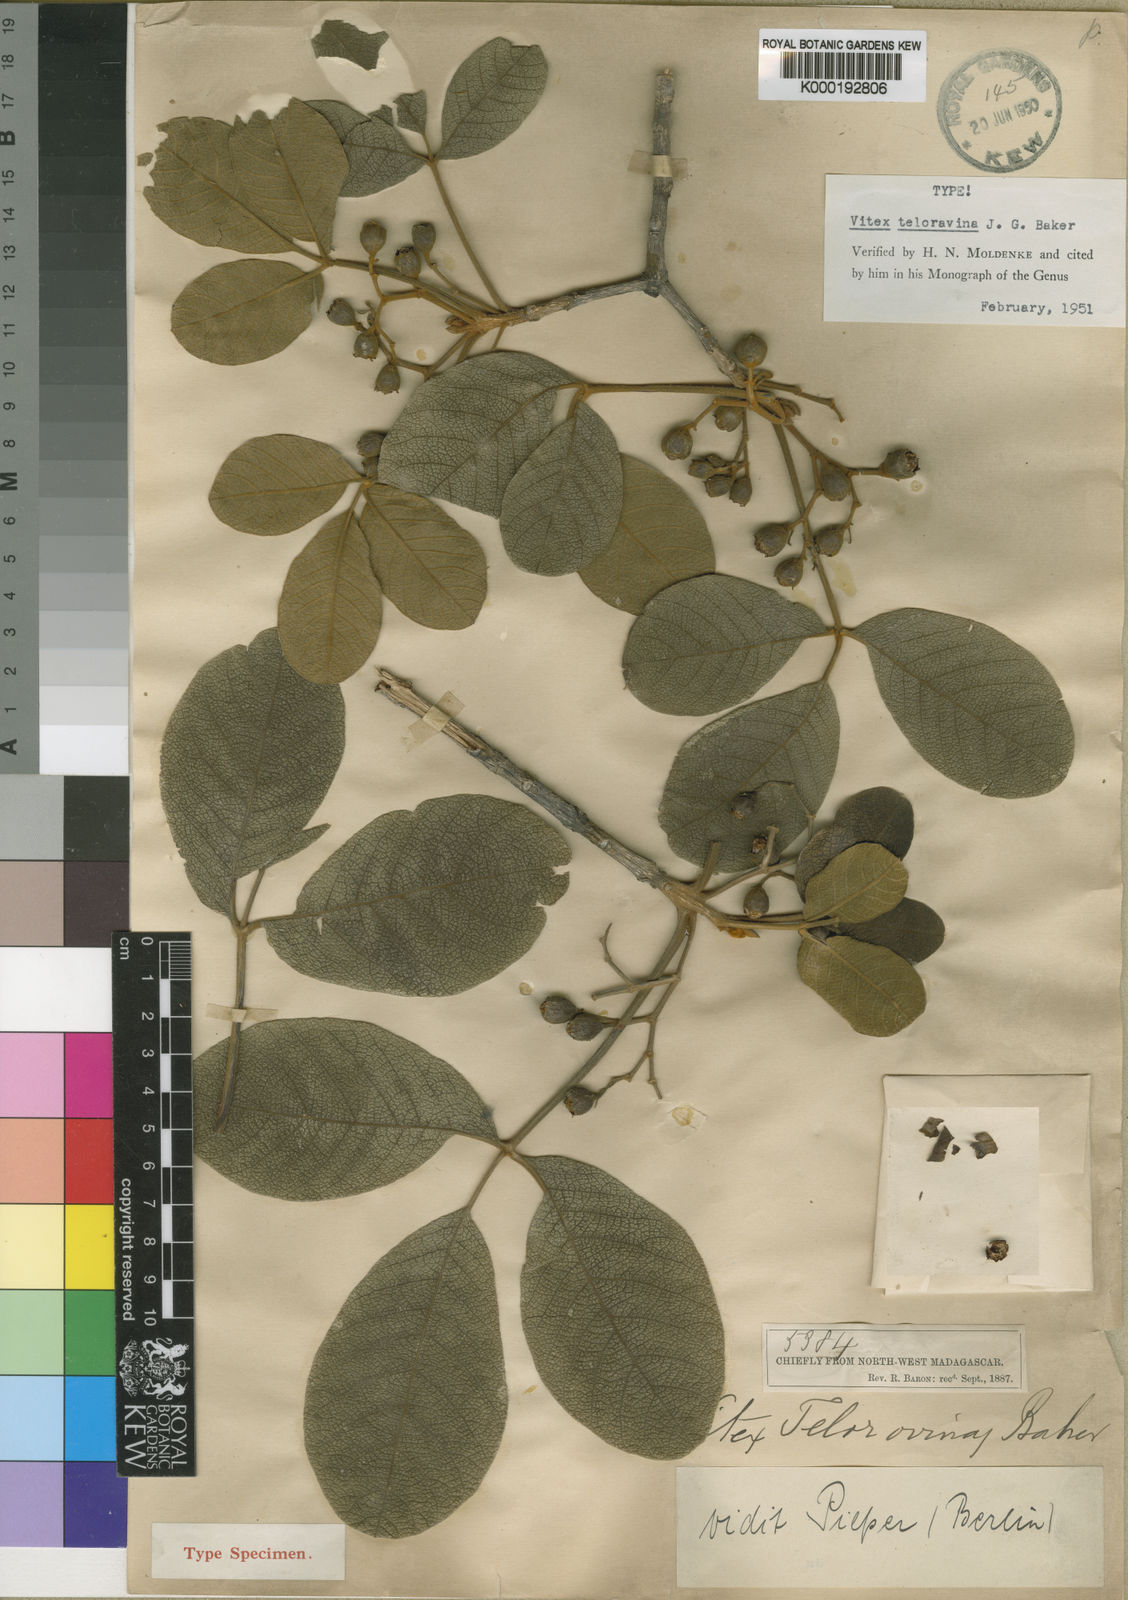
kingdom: Plantae
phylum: Tracheophyta
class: Magnoliopsida
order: Lamiales
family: Lamiaceae
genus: Vitex
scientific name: Vitex teloravina
